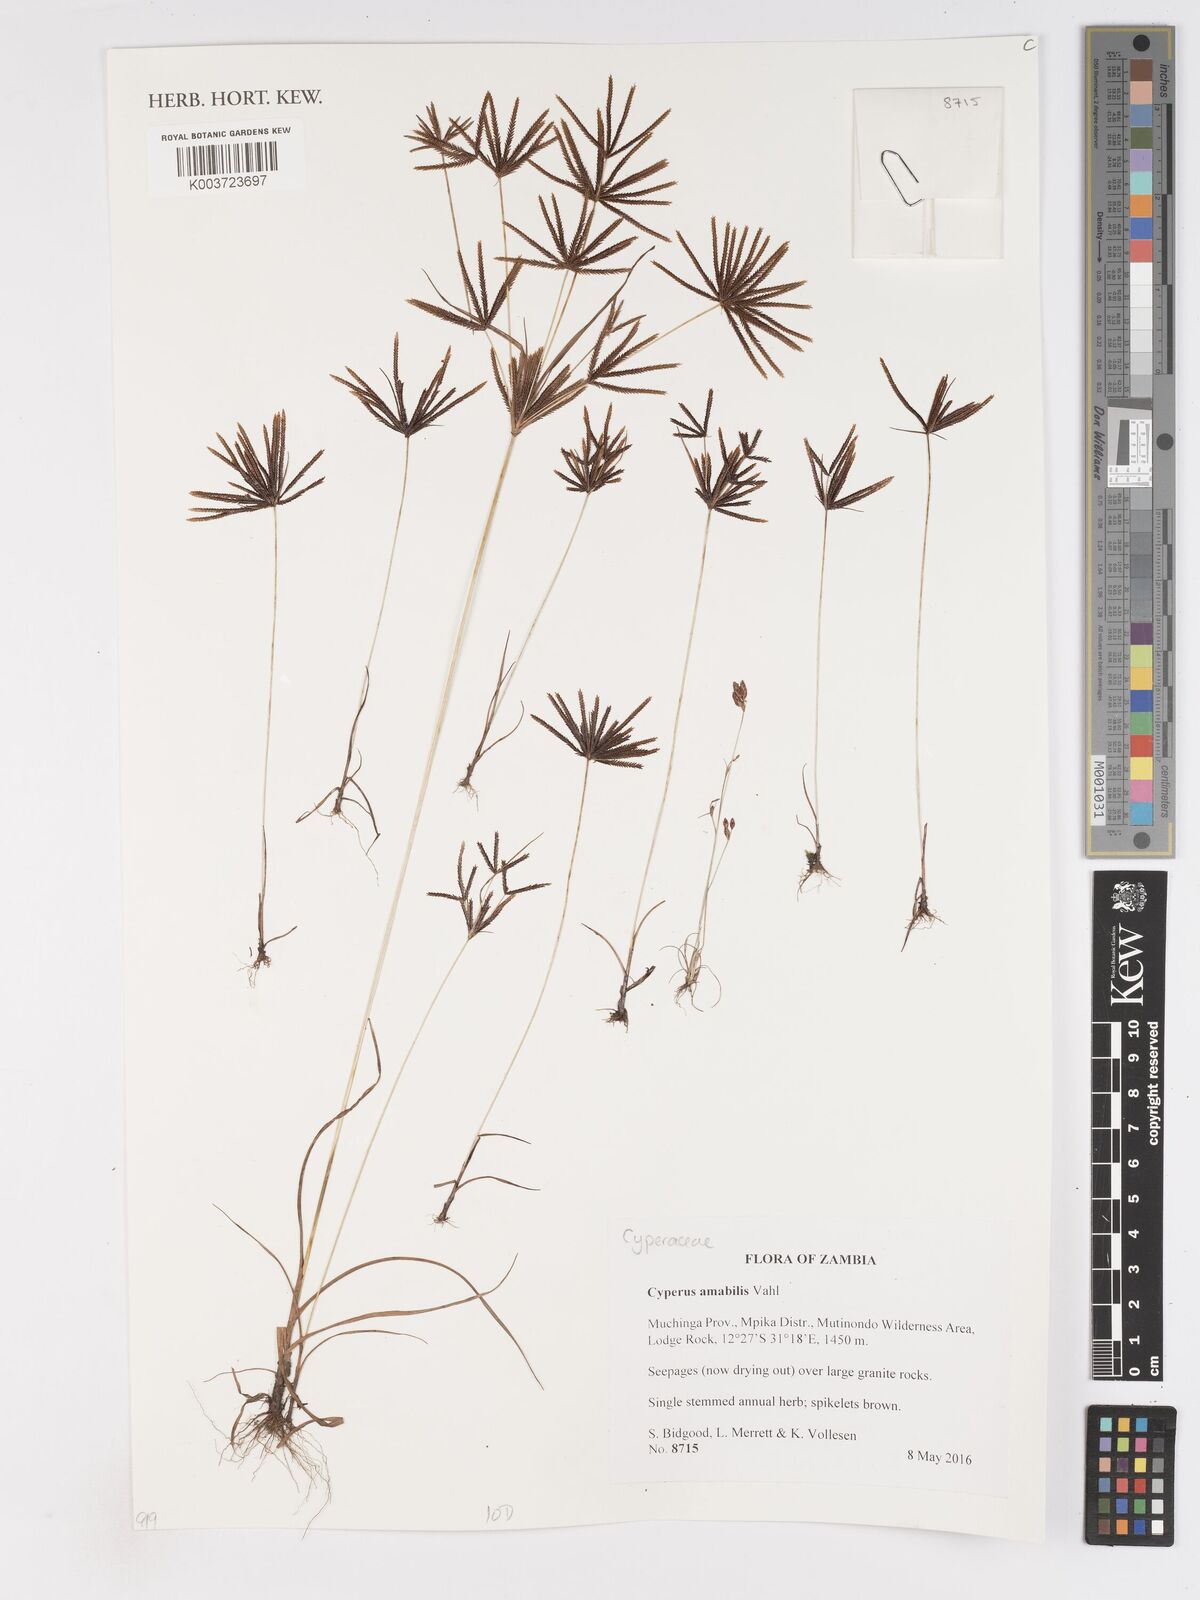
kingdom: Plantae
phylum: Tracheophyta
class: Liliopsida
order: Poales
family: Cyperaceae
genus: Cyperus
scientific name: Cyperus amabilis
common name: Foothill flat sedge
